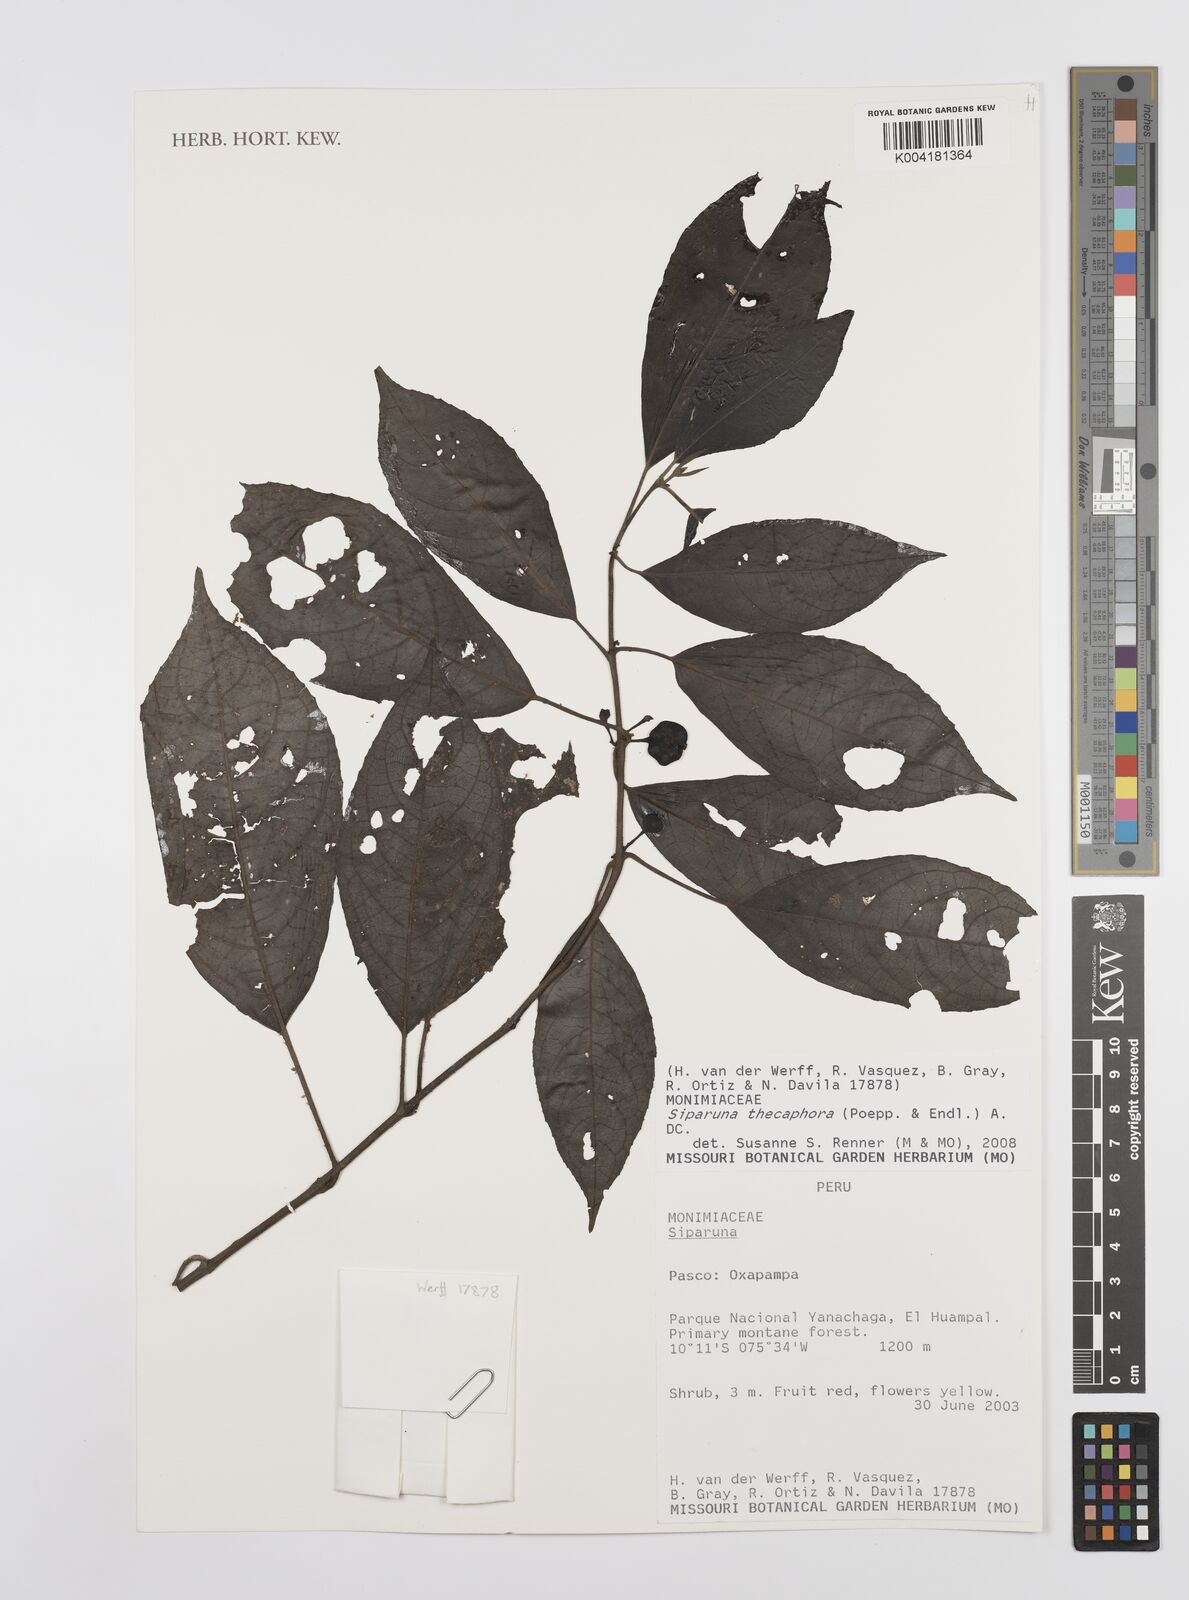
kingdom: Plantae
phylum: Tracheophyta
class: Magnoliopsida
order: Laurales
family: Siparunaceae
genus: Siparuna
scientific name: Siparuna thecaphora
